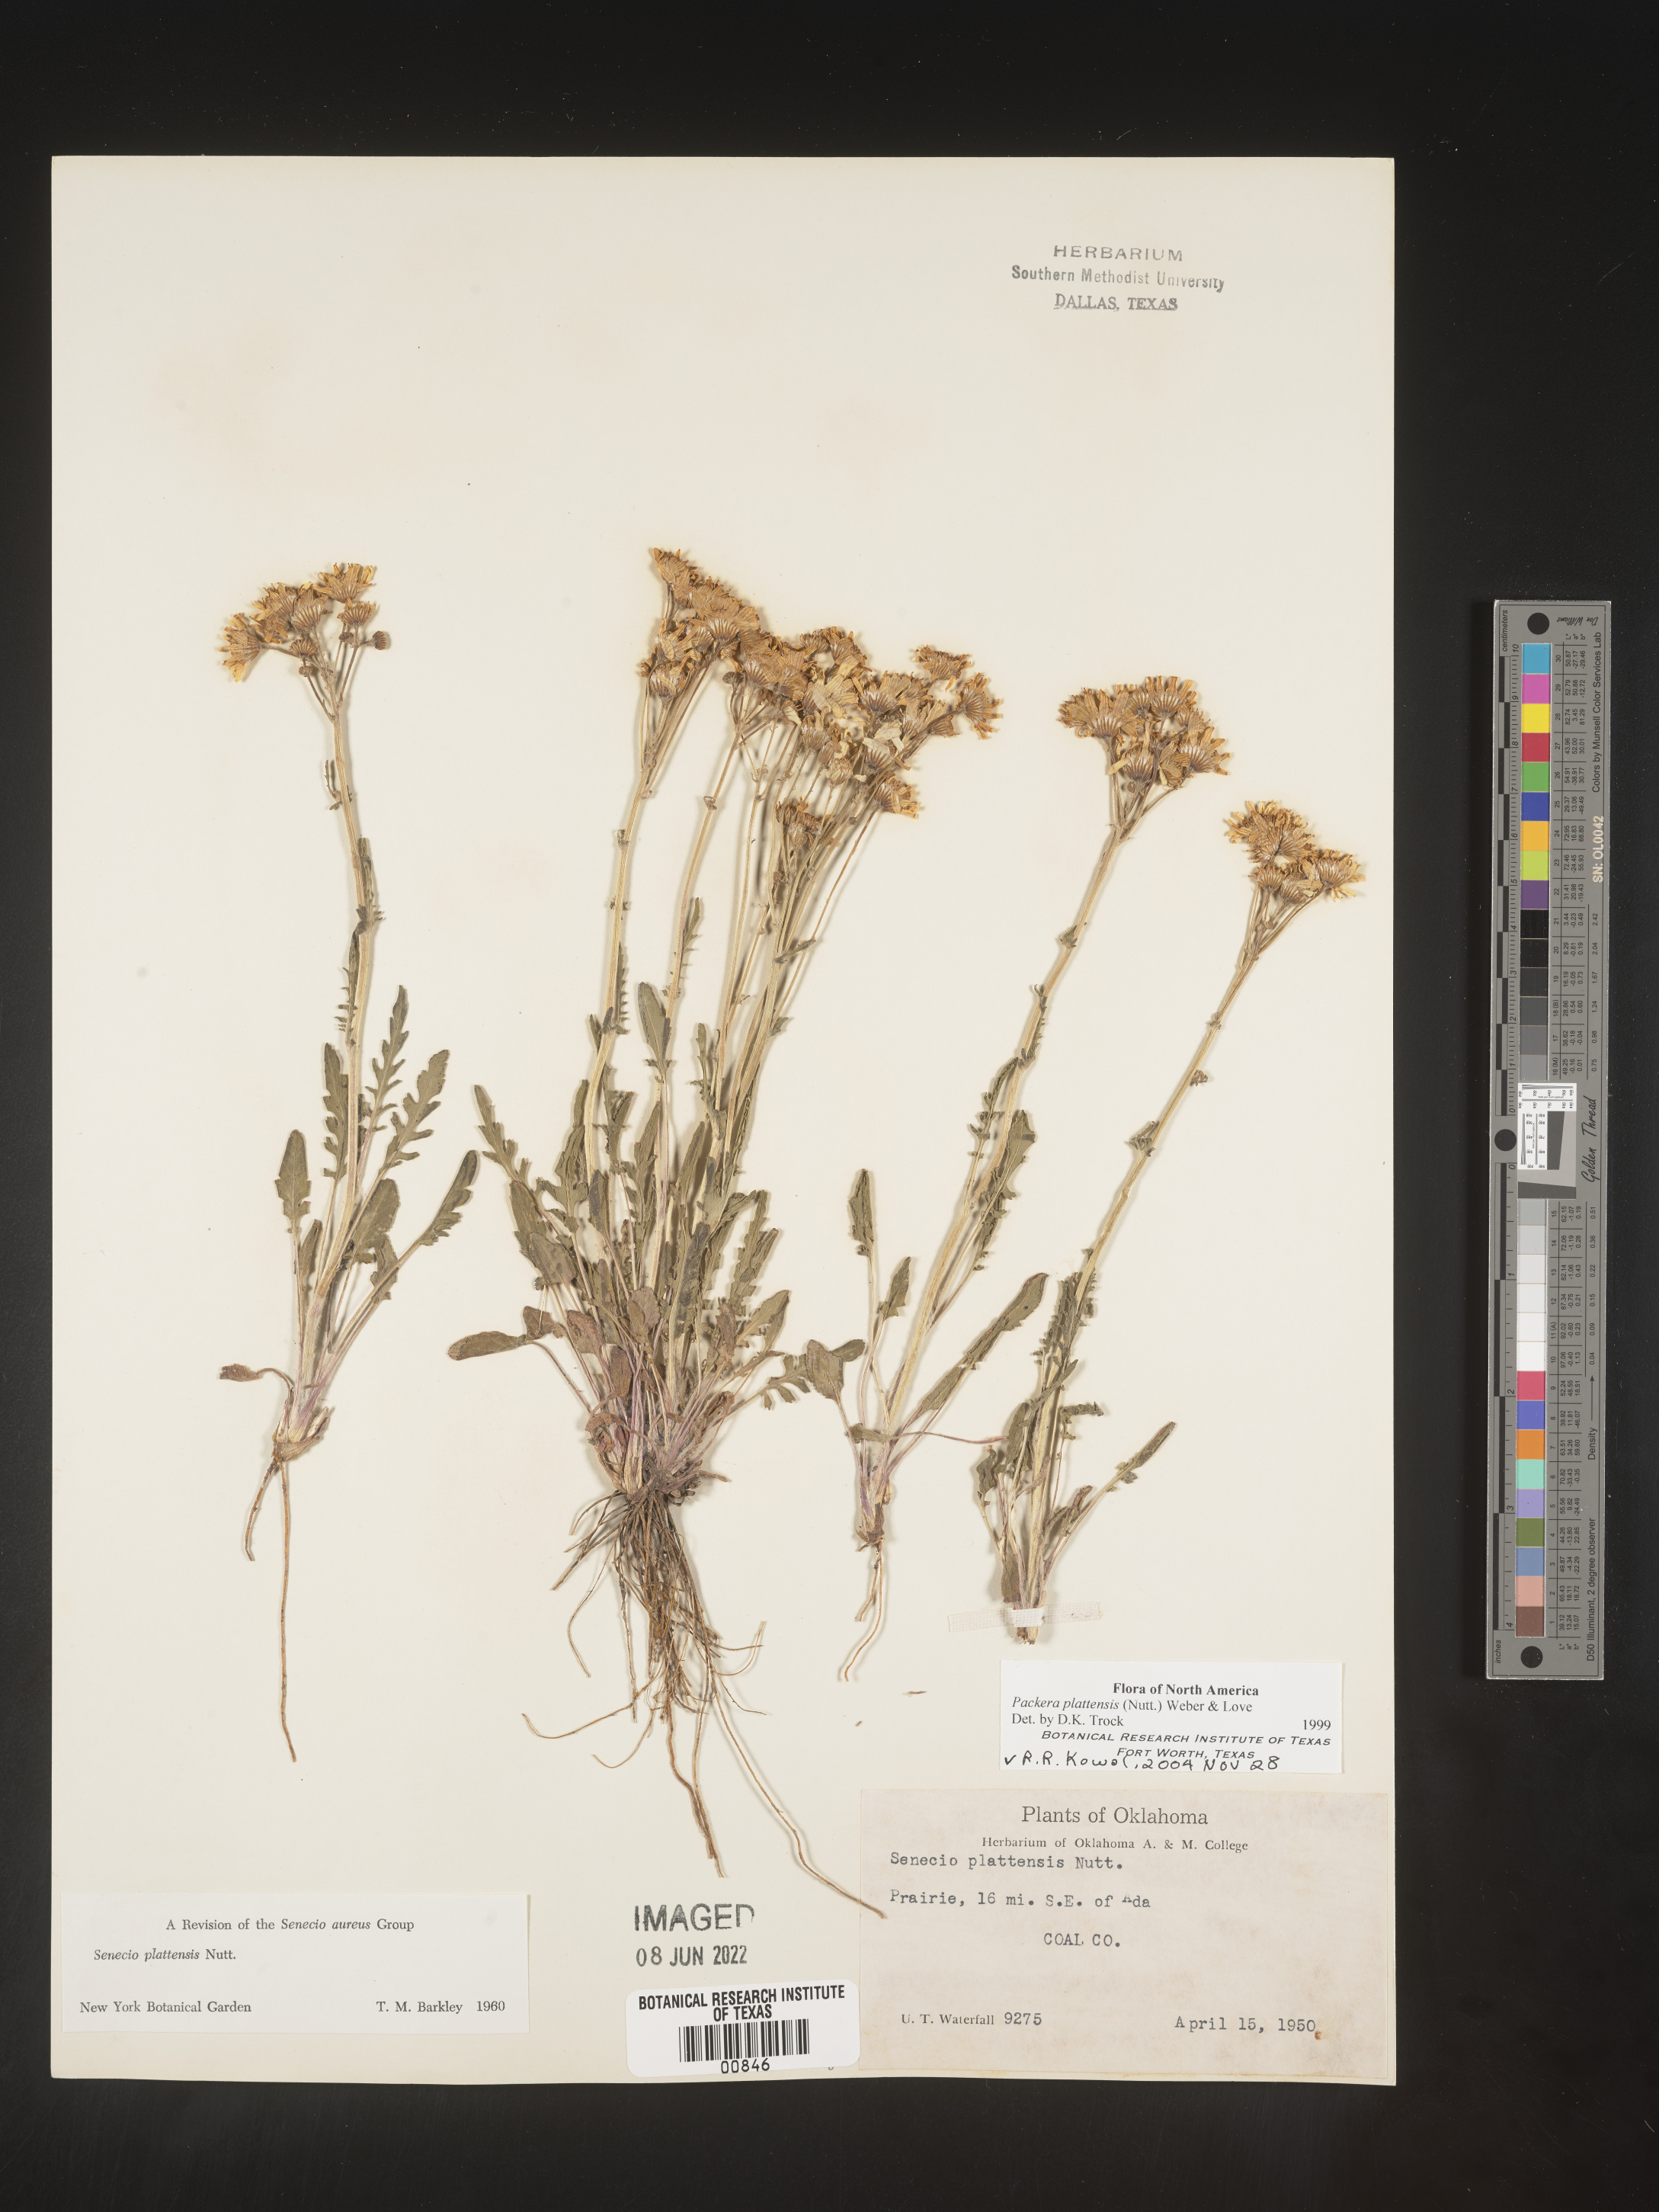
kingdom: Plantae
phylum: Tracheophyta
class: Magnoliopsida
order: Asterales
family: Asteraceae
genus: Packera
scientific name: Packera plattensis
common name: Prairie groundsel
